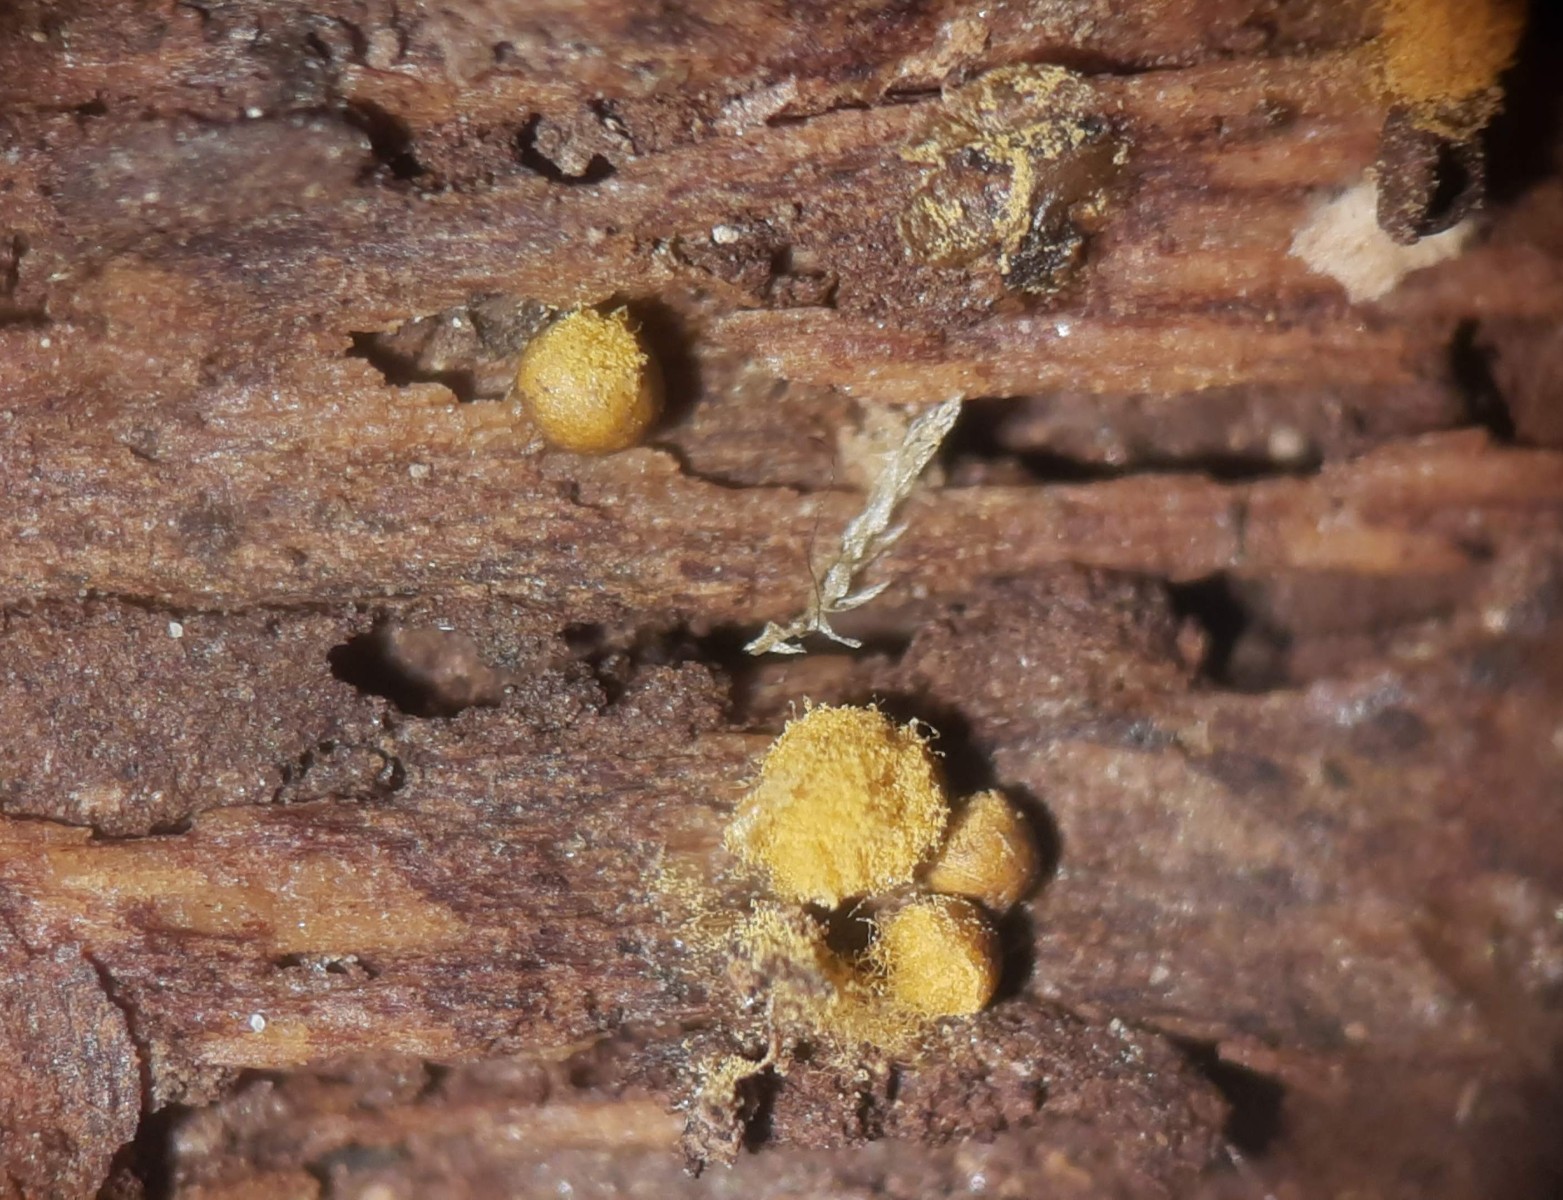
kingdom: Protozoa
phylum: Mycetozoa
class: Myxomycetes
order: Trichiales
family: Trichiaceae
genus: Trichia
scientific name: Trichia varia
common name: foranderlig hårbold
